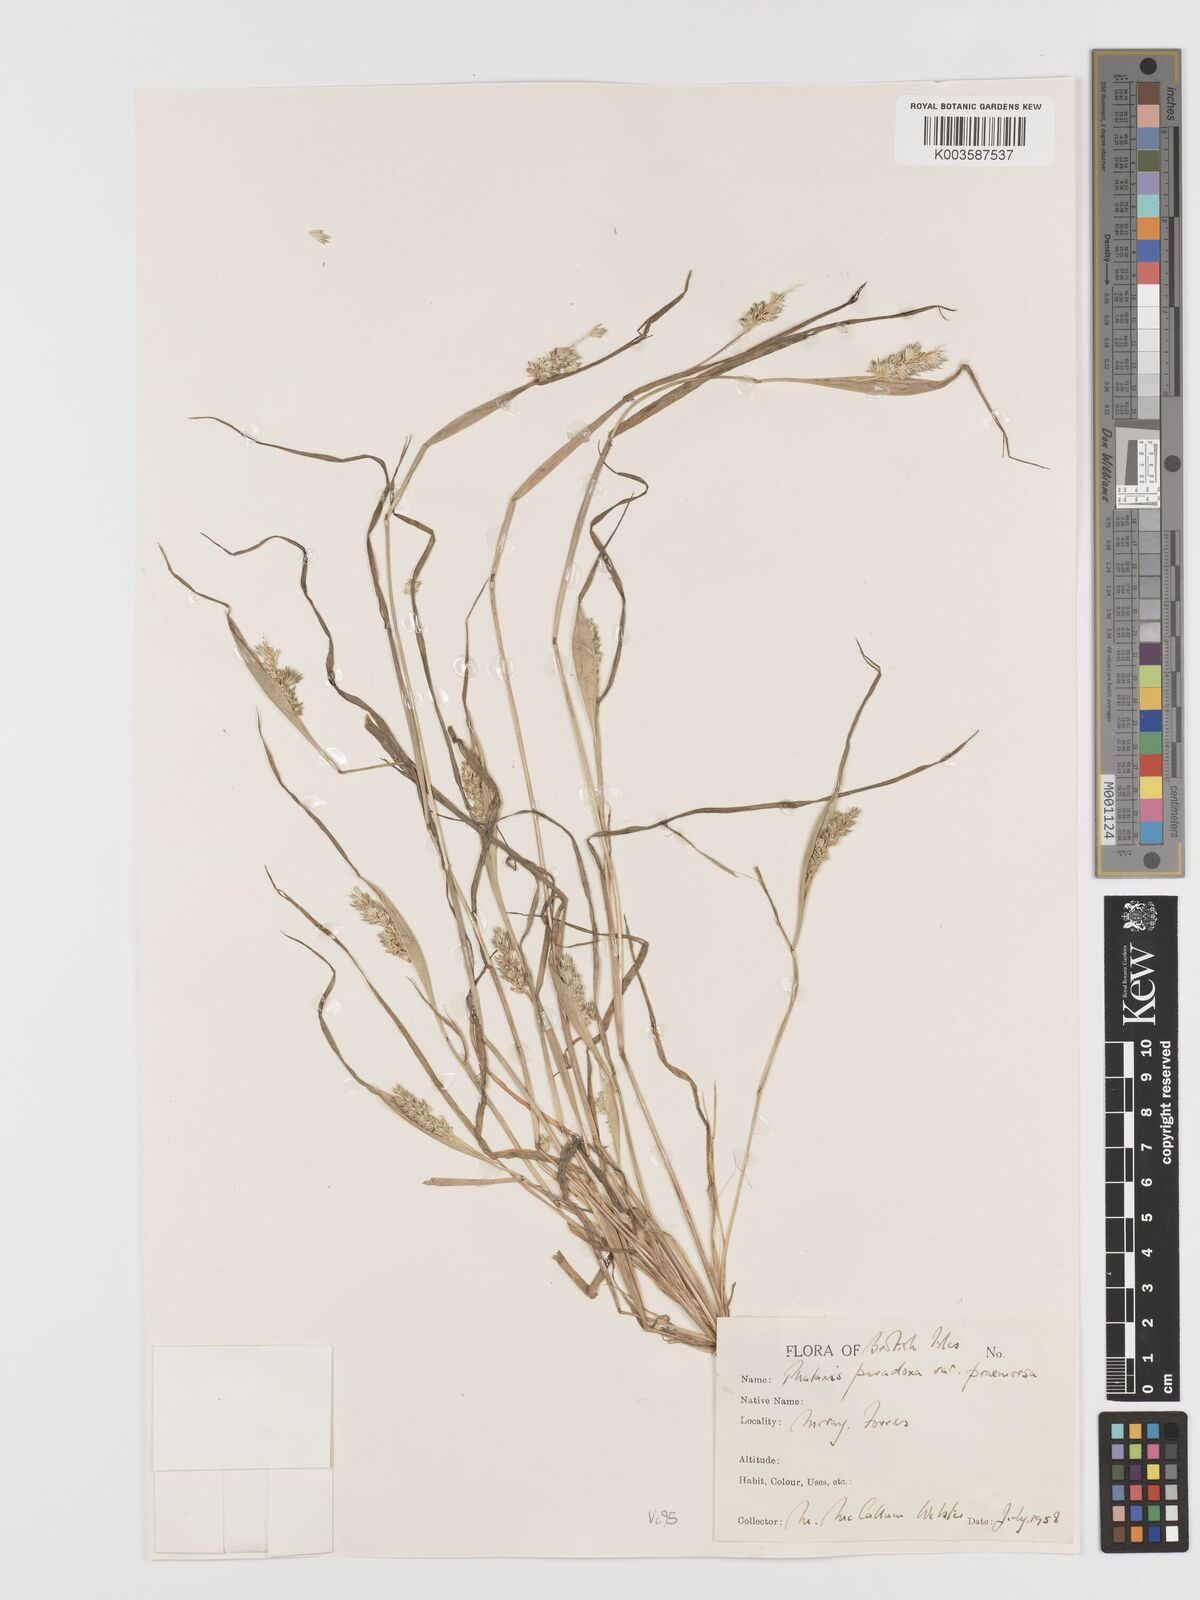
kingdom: Plantae
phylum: Tracheophyta
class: Liliopsida
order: Poales
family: Poaceae
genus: Phalaris
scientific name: Phalaris paradoxa
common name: Awned canary-grass
